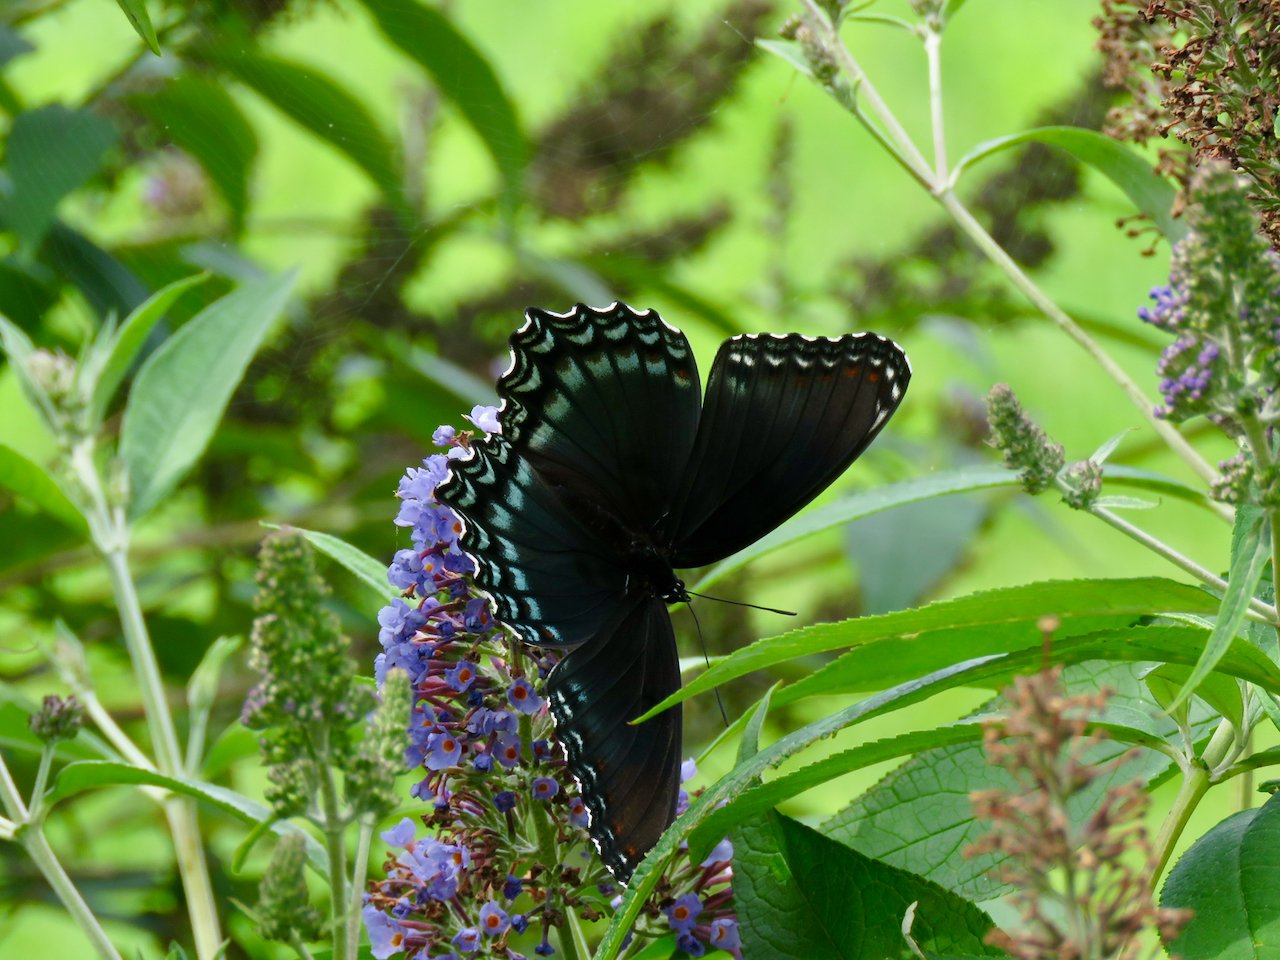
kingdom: Animalia
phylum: Arthropoda
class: Insecta
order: Lepidoptera
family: Nymphalidae
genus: Limenitis
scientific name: Limenitis astyanax
